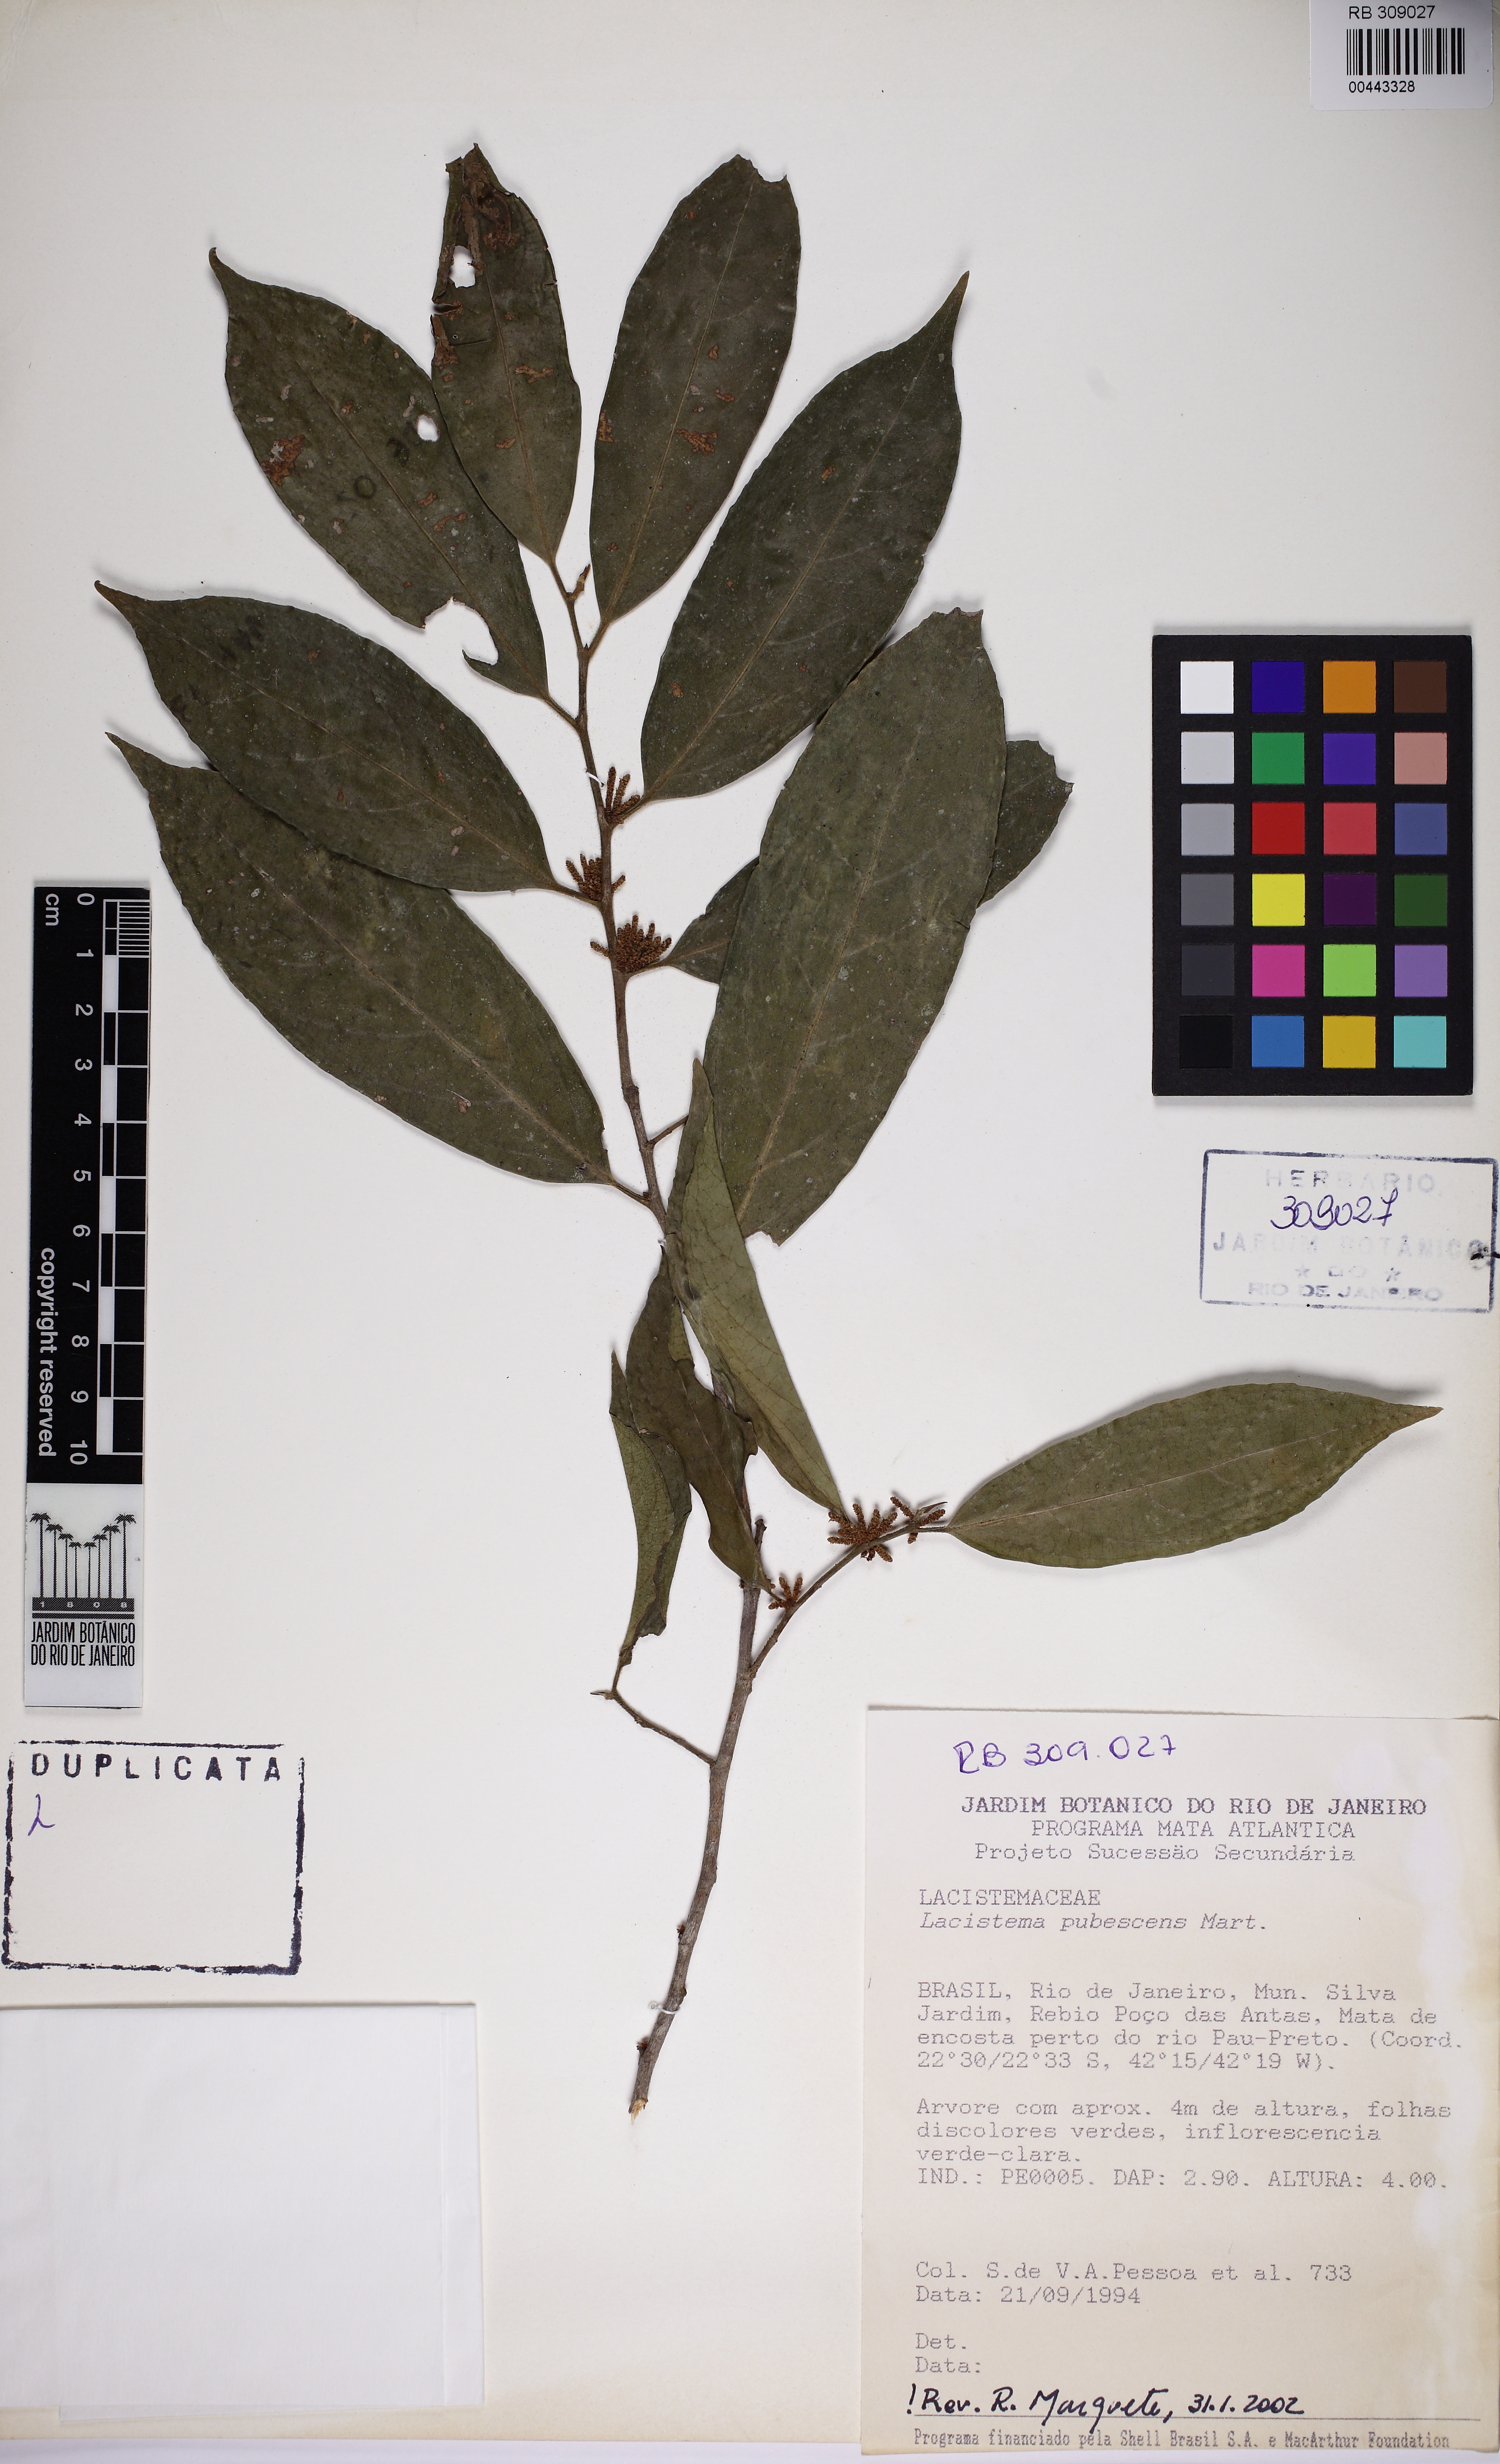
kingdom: Plantae
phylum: Tracheophyta
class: Magnoliopsida
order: Malpighiales
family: Lacistemataceae
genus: Lacistema
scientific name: Lacistema pubescens
